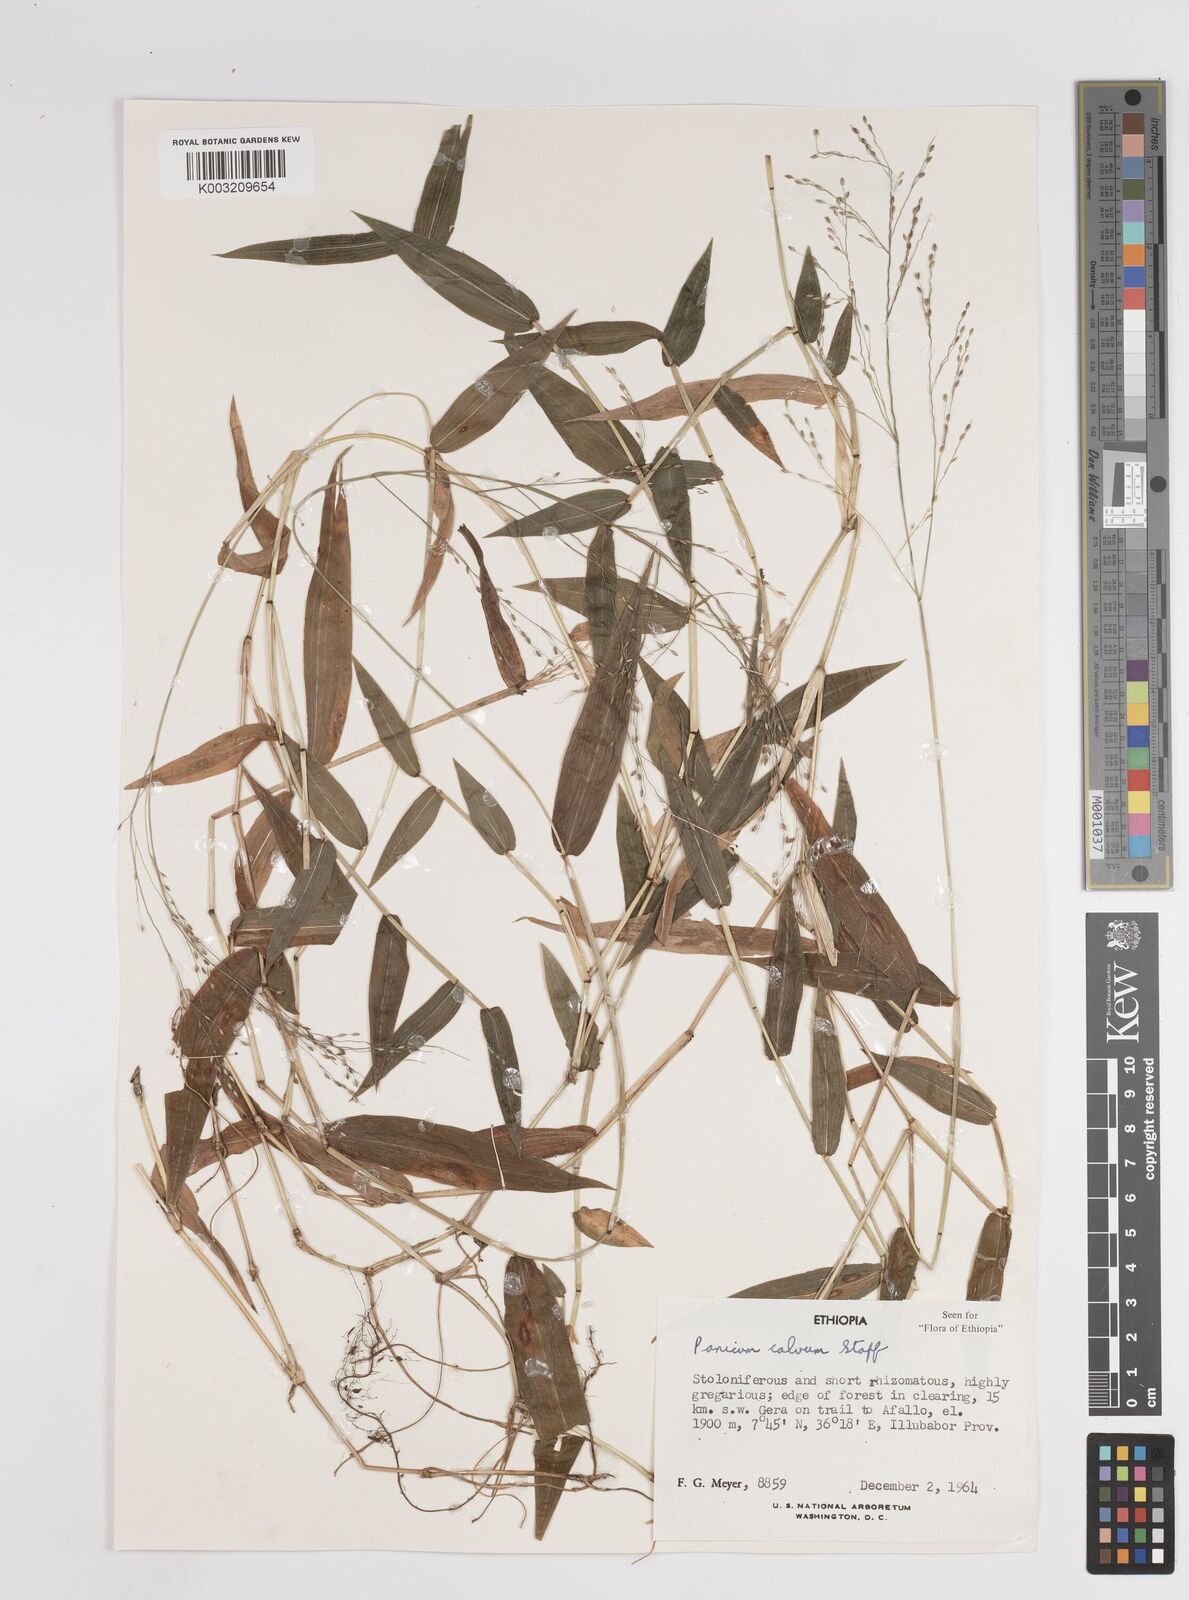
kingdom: Plantae
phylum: Tracheophyta
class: Liliopsida
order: Poales
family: Poaceae
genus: Panicum
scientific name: Panicum calvum
